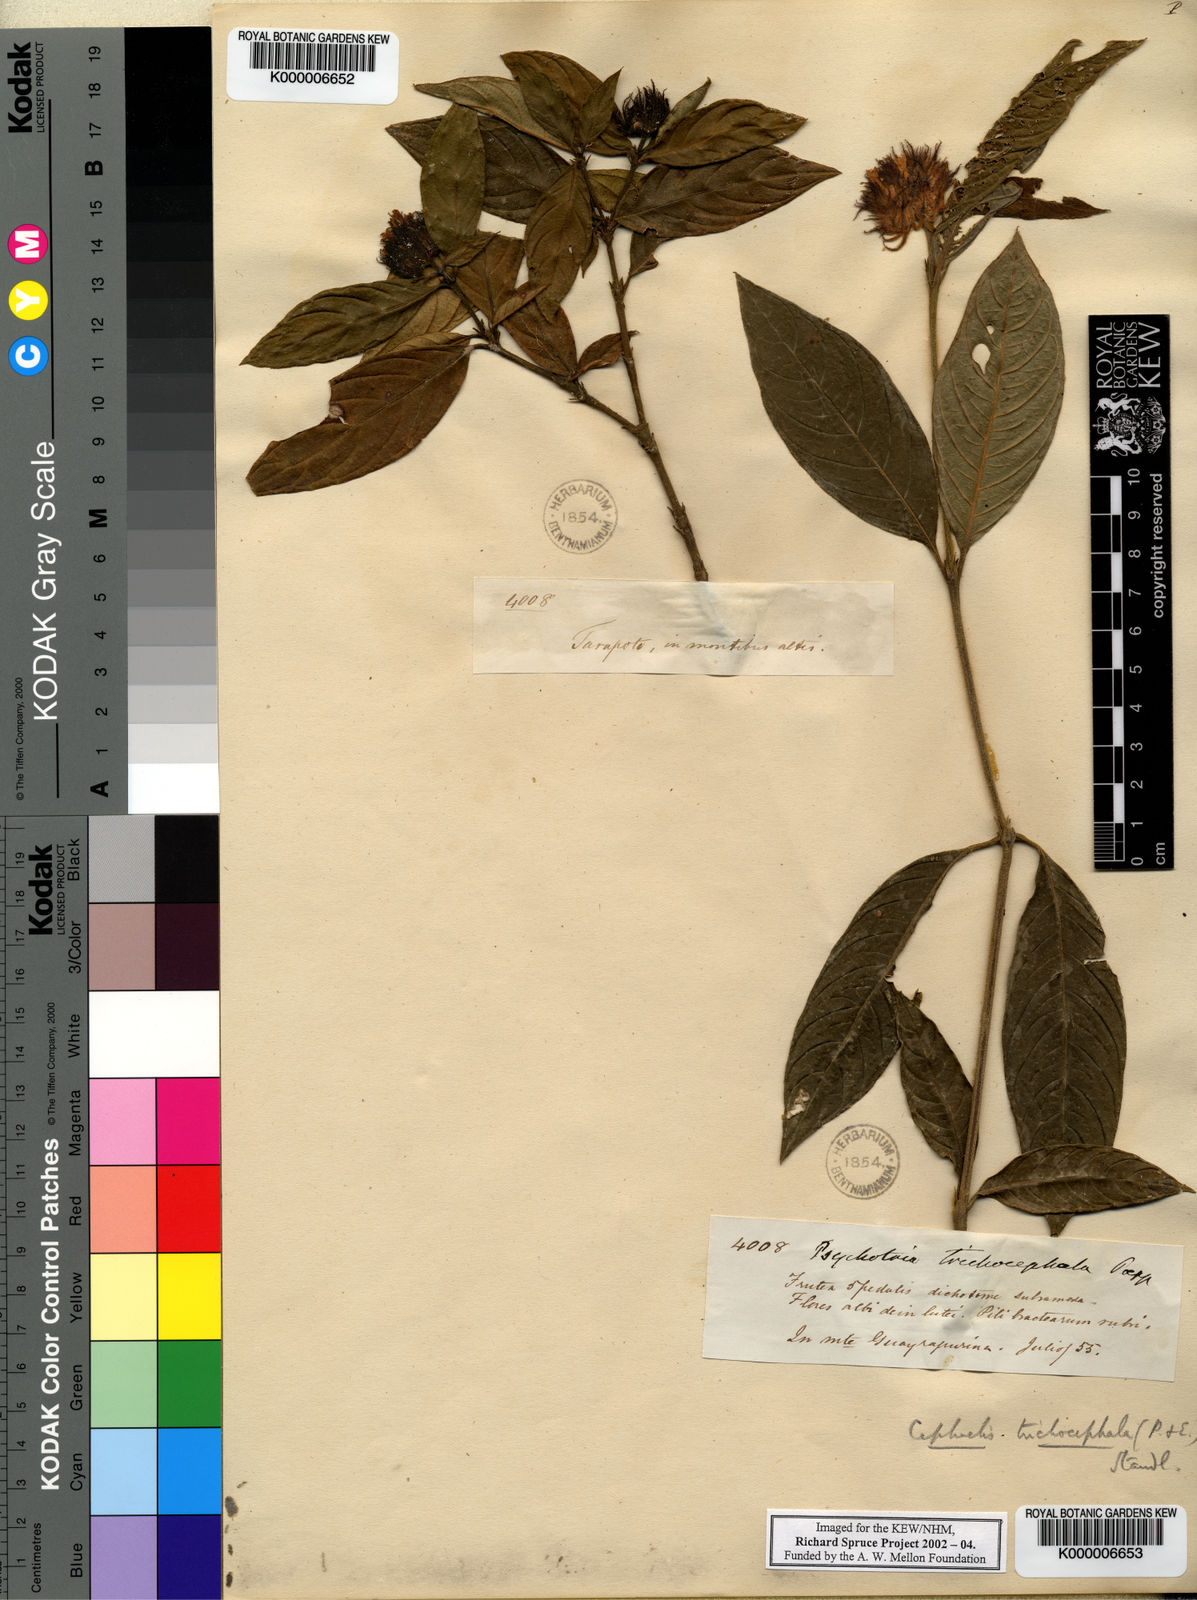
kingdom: Plantae
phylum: Tracheophyta
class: Magnoliopsida
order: Gentianales
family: Rubiaceae
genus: Palicourea
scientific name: Palicourea trichocephala
